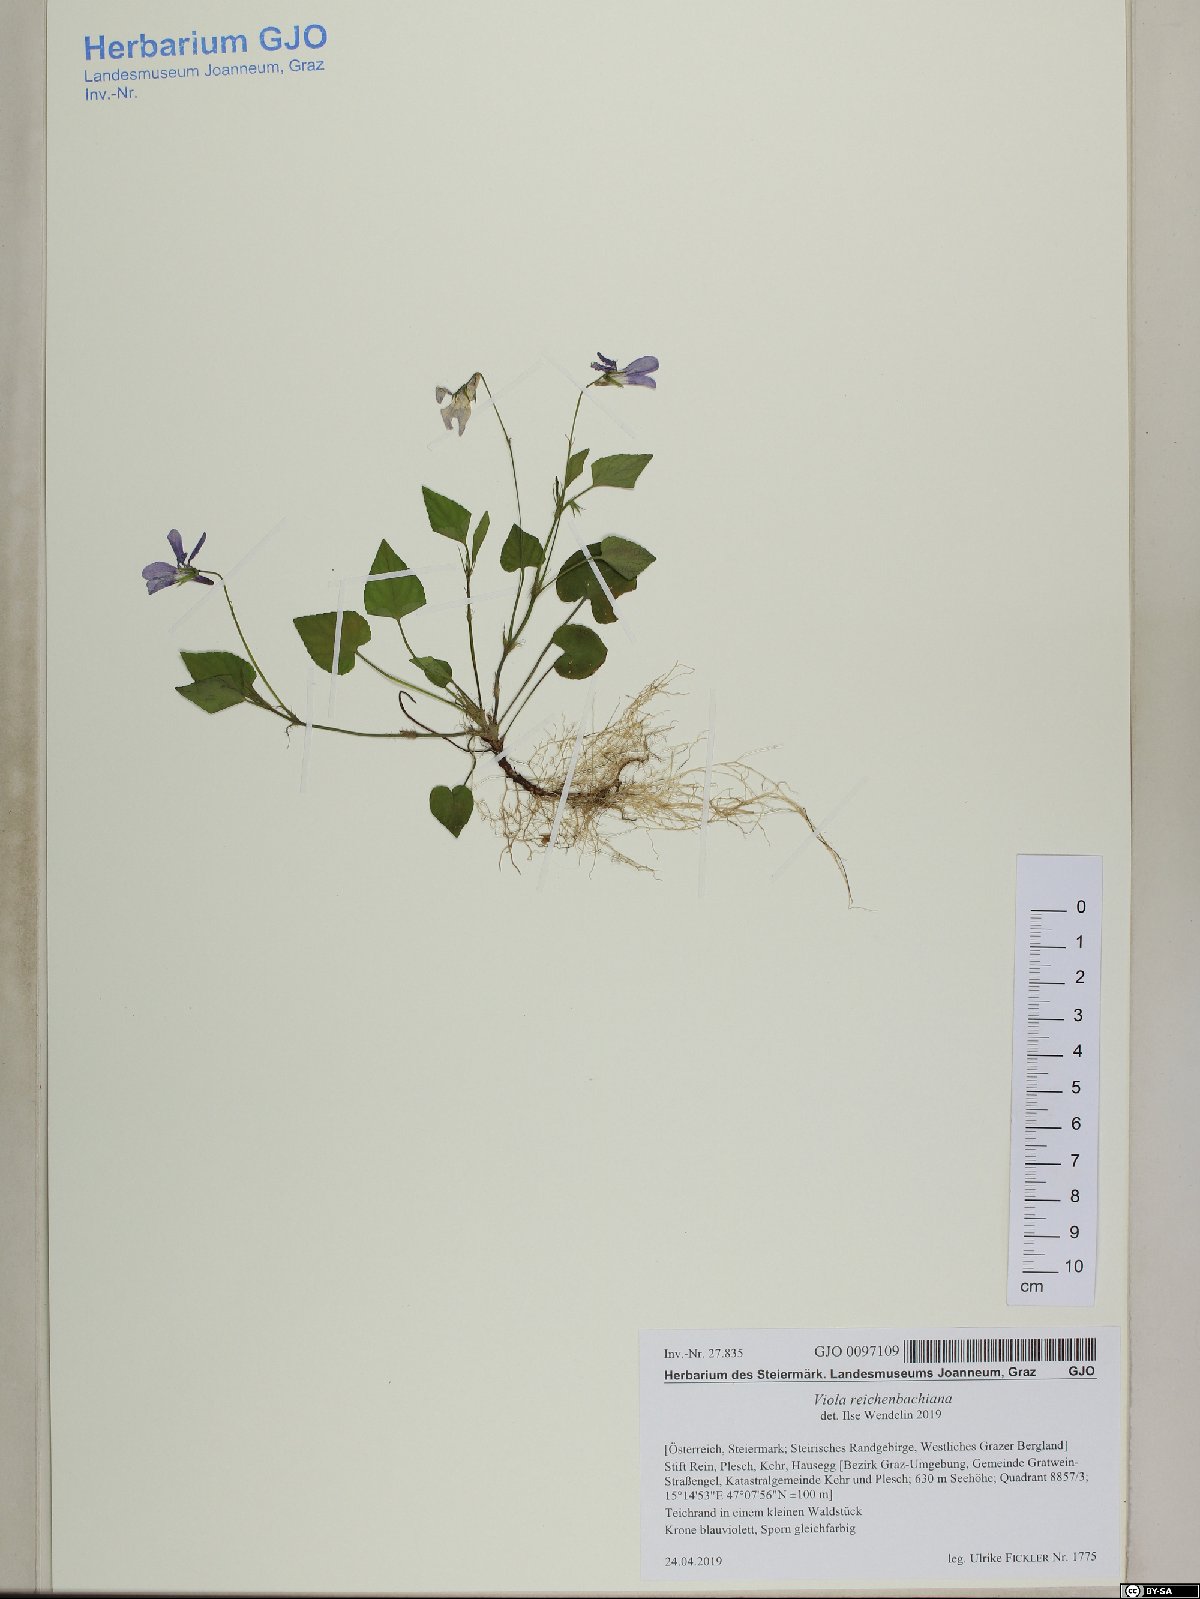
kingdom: Plantae
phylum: Tracheophyta
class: Magnoliopsida
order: Malpighiales
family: Violaceae
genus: Viola
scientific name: Viola reichenbachiana
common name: Early dog-violet
